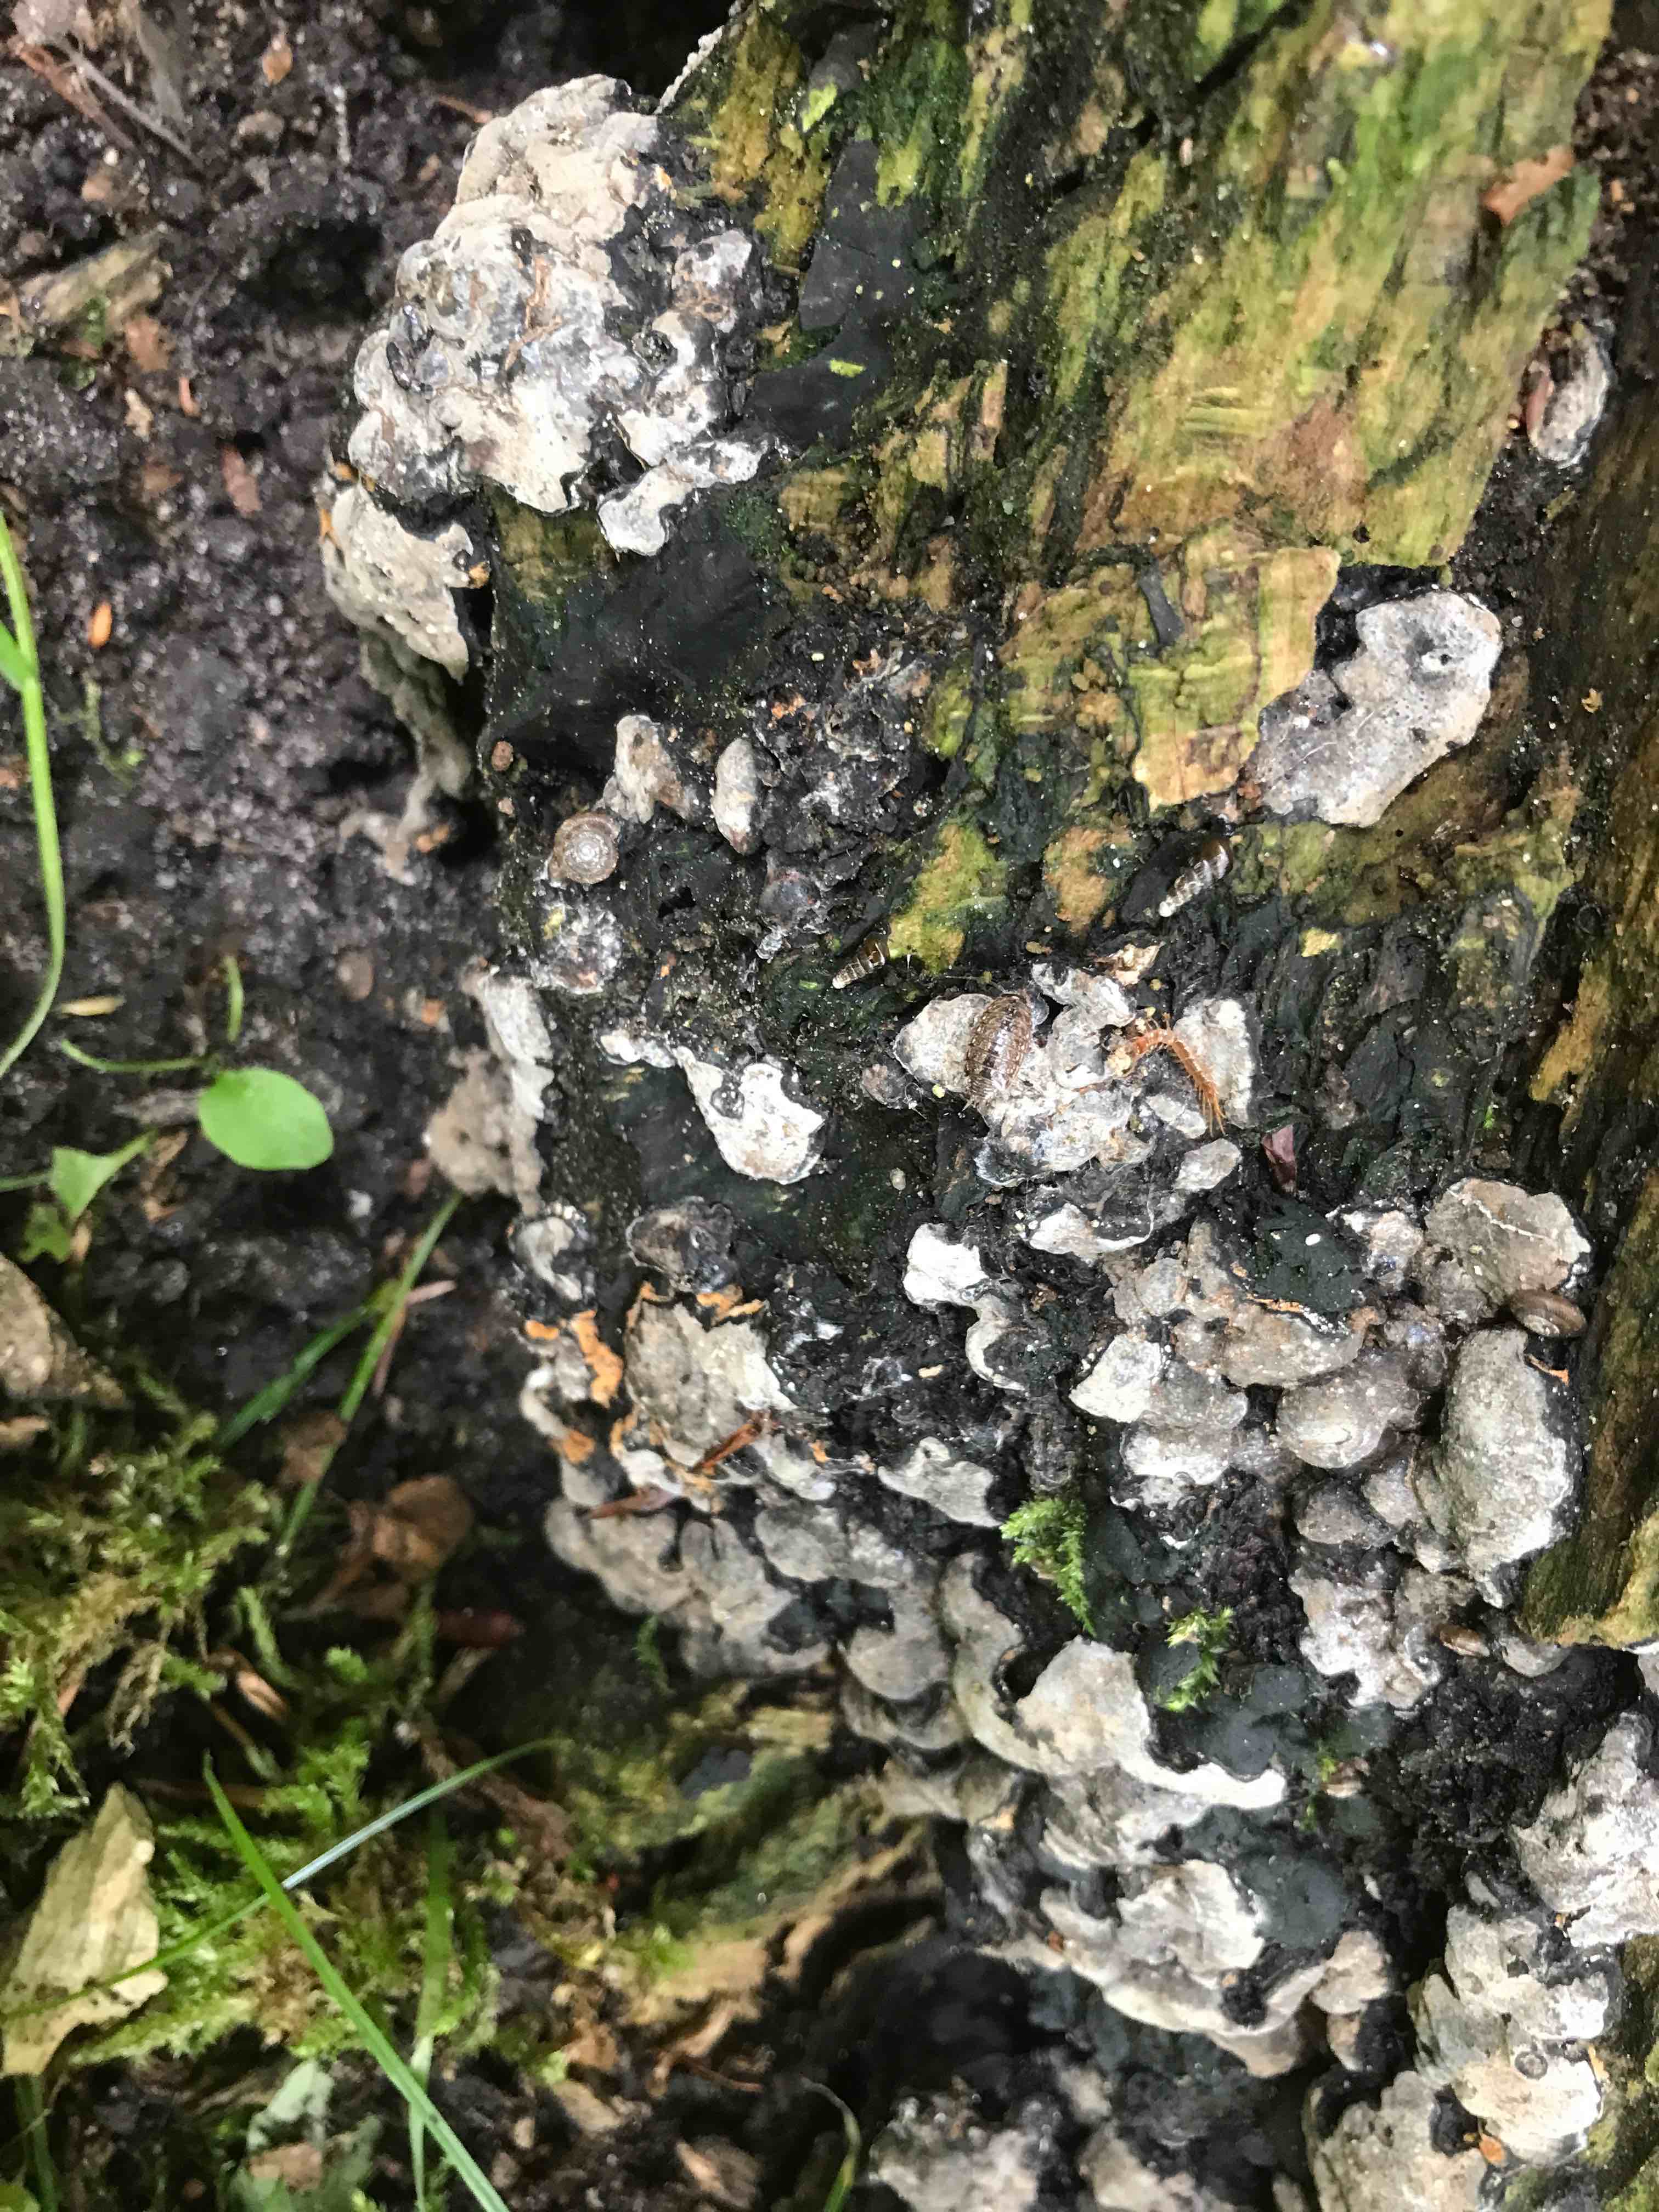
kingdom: Fungi
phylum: Ascomycota
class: Sordariomycetes
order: Xylariales
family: Xylariaceae
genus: Kretzschmaria
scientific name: Kretzschmaria deusta
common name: stor kulsvamp
